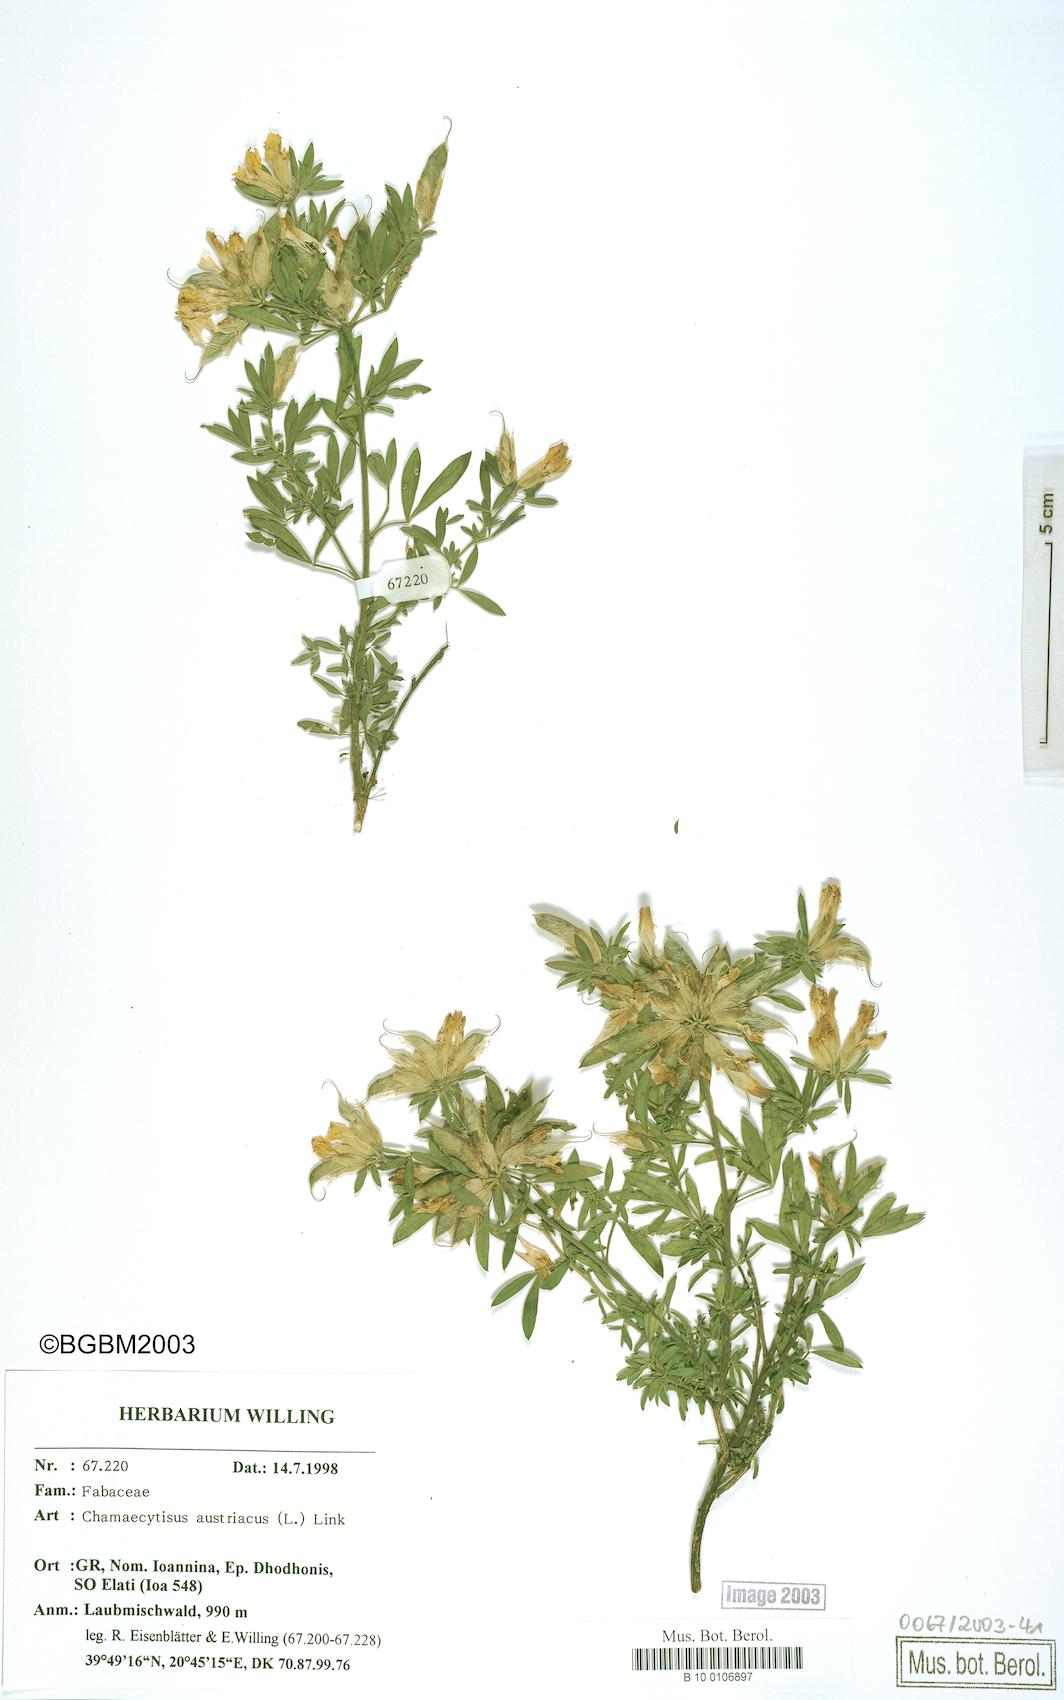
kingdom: Plantae
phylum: Tracheophyta
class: Magnoliopsida
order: Fabales
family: Fabaceae
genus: Chamaecytisus
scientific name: Chamaecytisus austriacus
